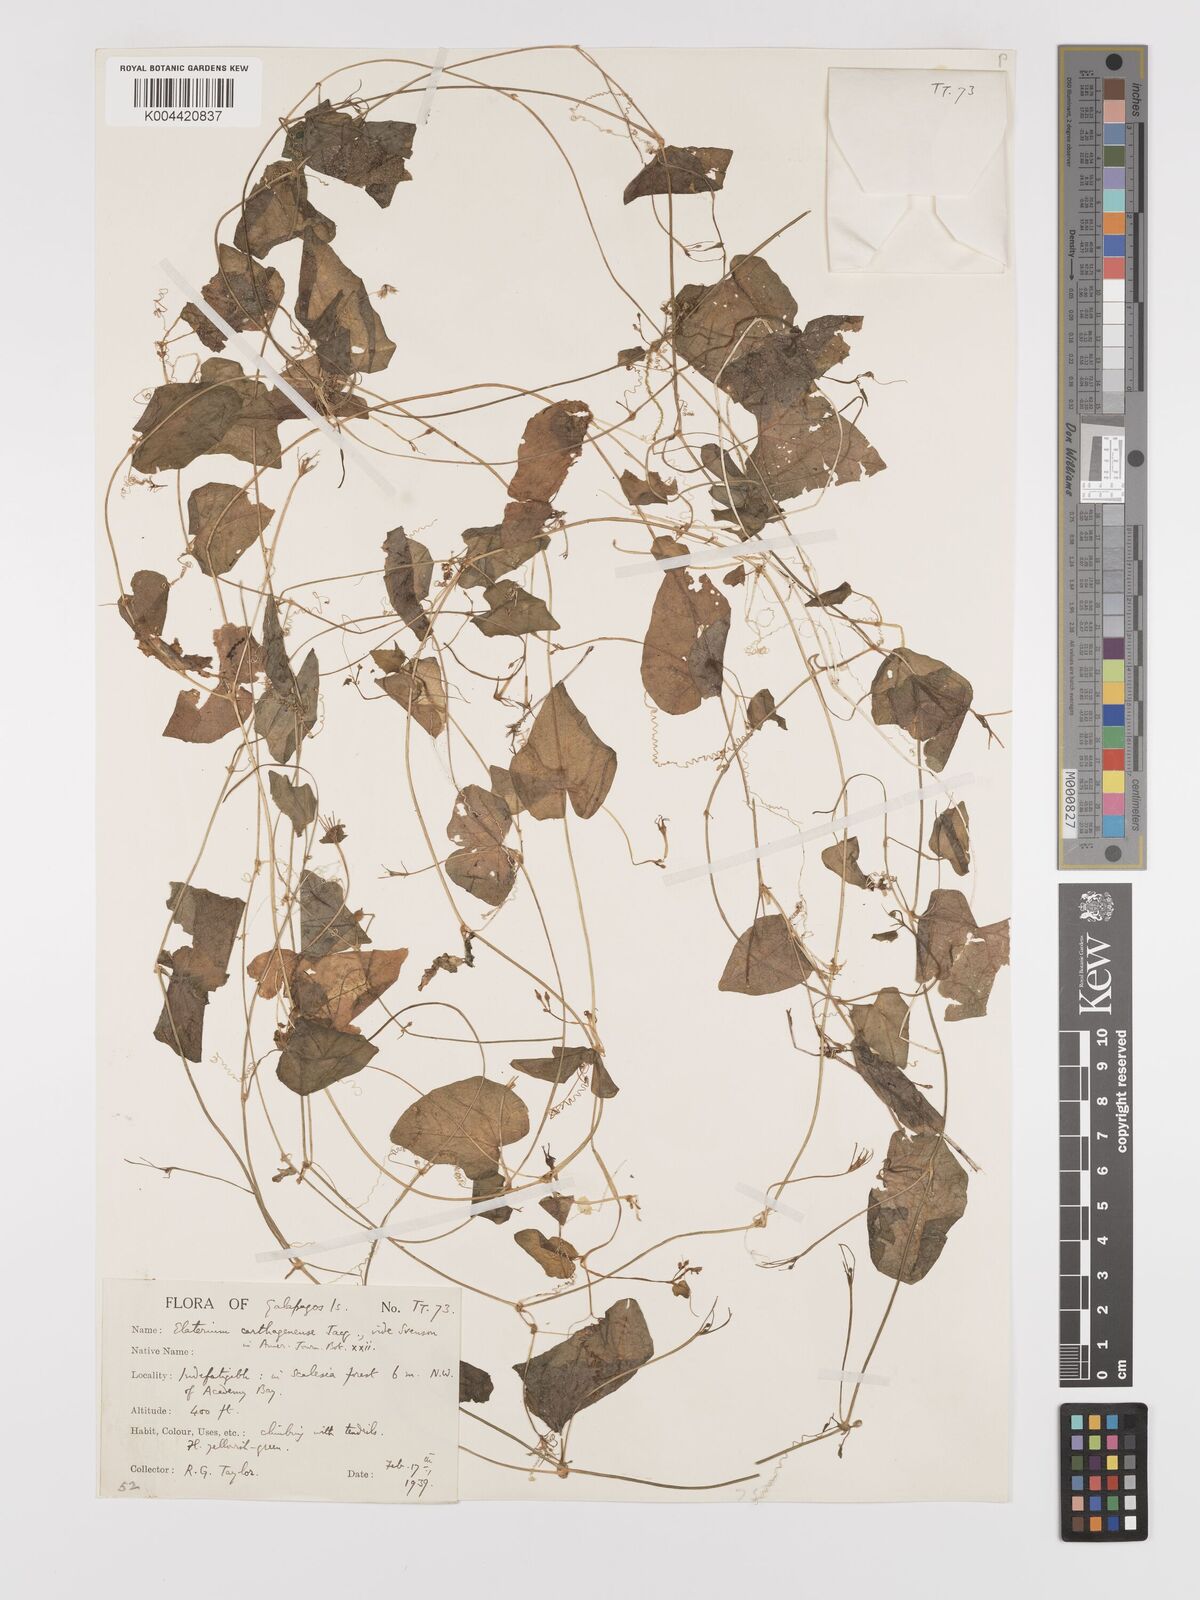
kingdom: Plantae
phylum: Tracheophyta
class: Magnoliopsida
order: Cucurbitales
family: Cucurbitaceae
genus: Cyclanthera
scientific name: Cyclanthera carthagenensis
